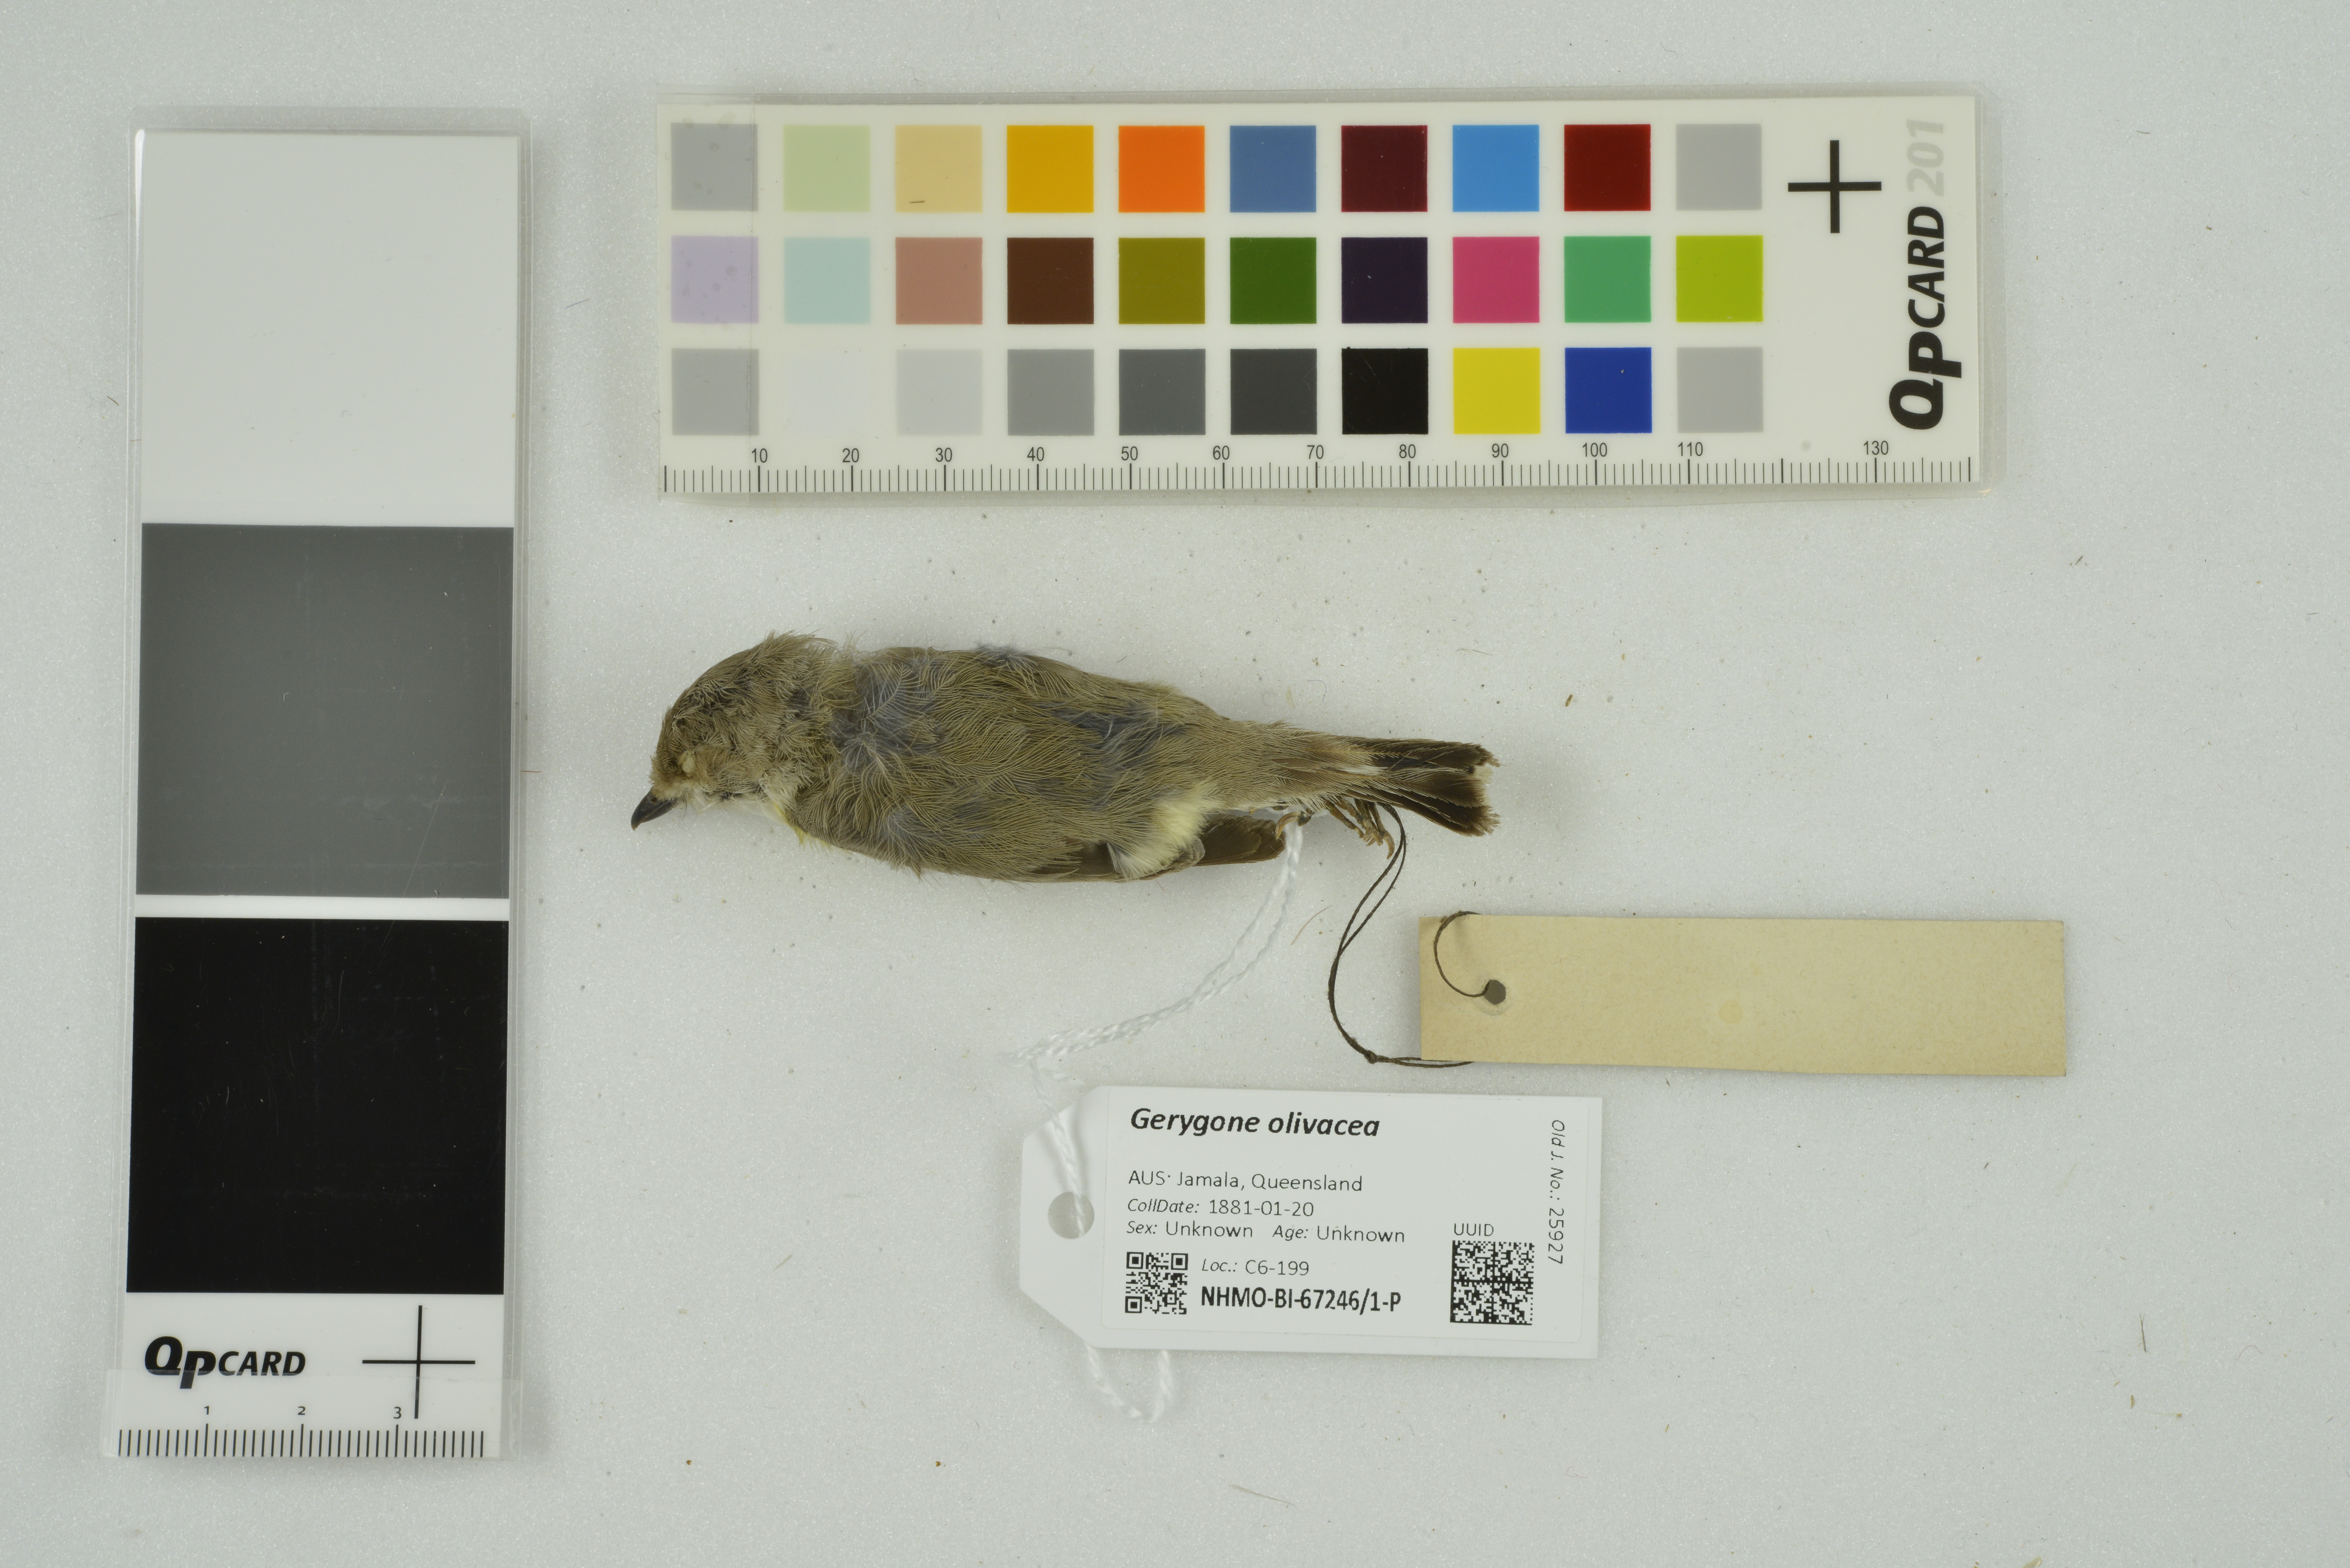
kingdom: Animalia
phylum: Chordata
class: Aves
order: Passeriformes
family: Acanthizidae
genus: Gerygone
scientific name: Gerygone olivacea
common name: White-throated gerygone
